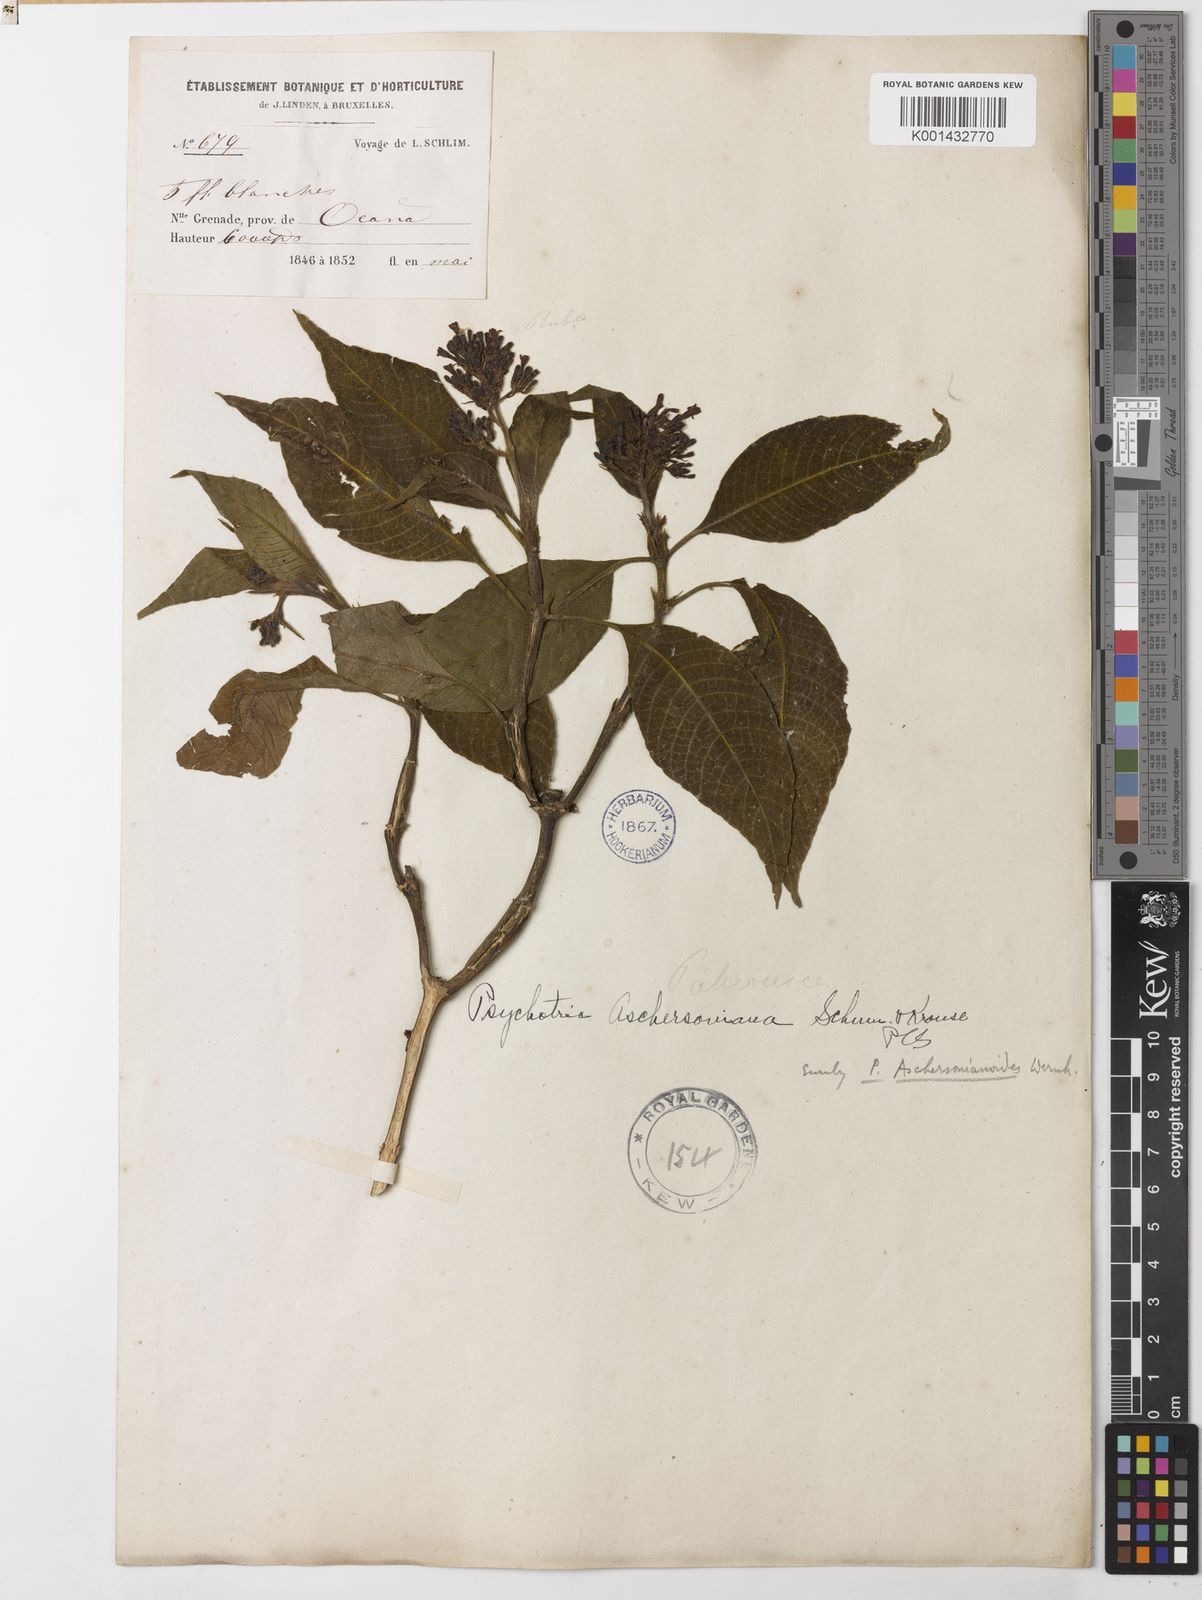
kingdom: Plantae
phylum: Tracheophyta
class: Magnoliopsida
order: Gentianales
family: Rubiaceae
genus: Palicourea
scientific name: Palicourea aschersonianoides
